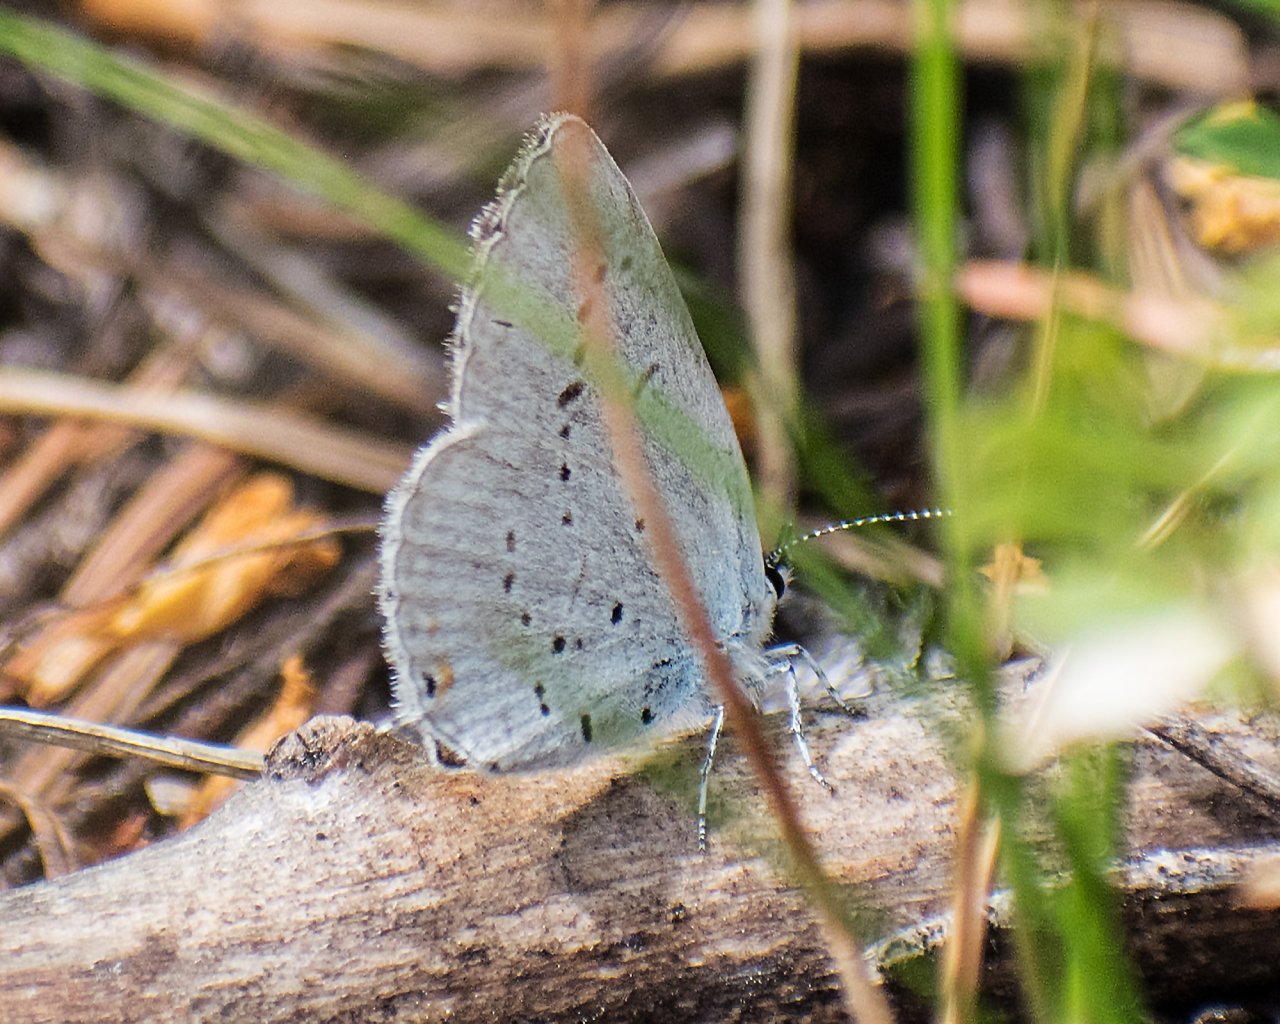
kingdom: Animalia
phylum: Arthropoda
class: Insecta
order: Lepidoptera
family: Lycaenidae
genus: Elkalyce
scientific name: Elkalyce amyntula
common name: Western Tailed-Blue
